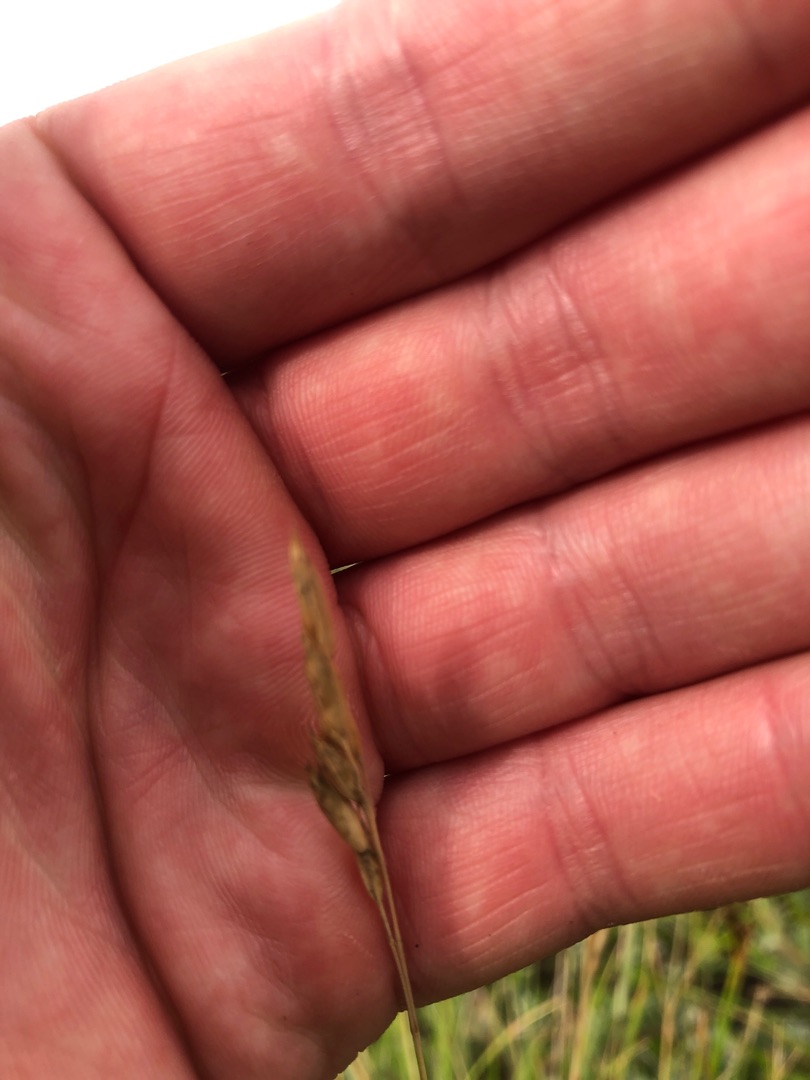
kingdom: Plantae
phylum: Tracheophyta
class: Liliopsida
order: Poales
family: Poaceae
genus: Danthonia
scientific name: Danthonia decumbens
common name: Tandbælg
